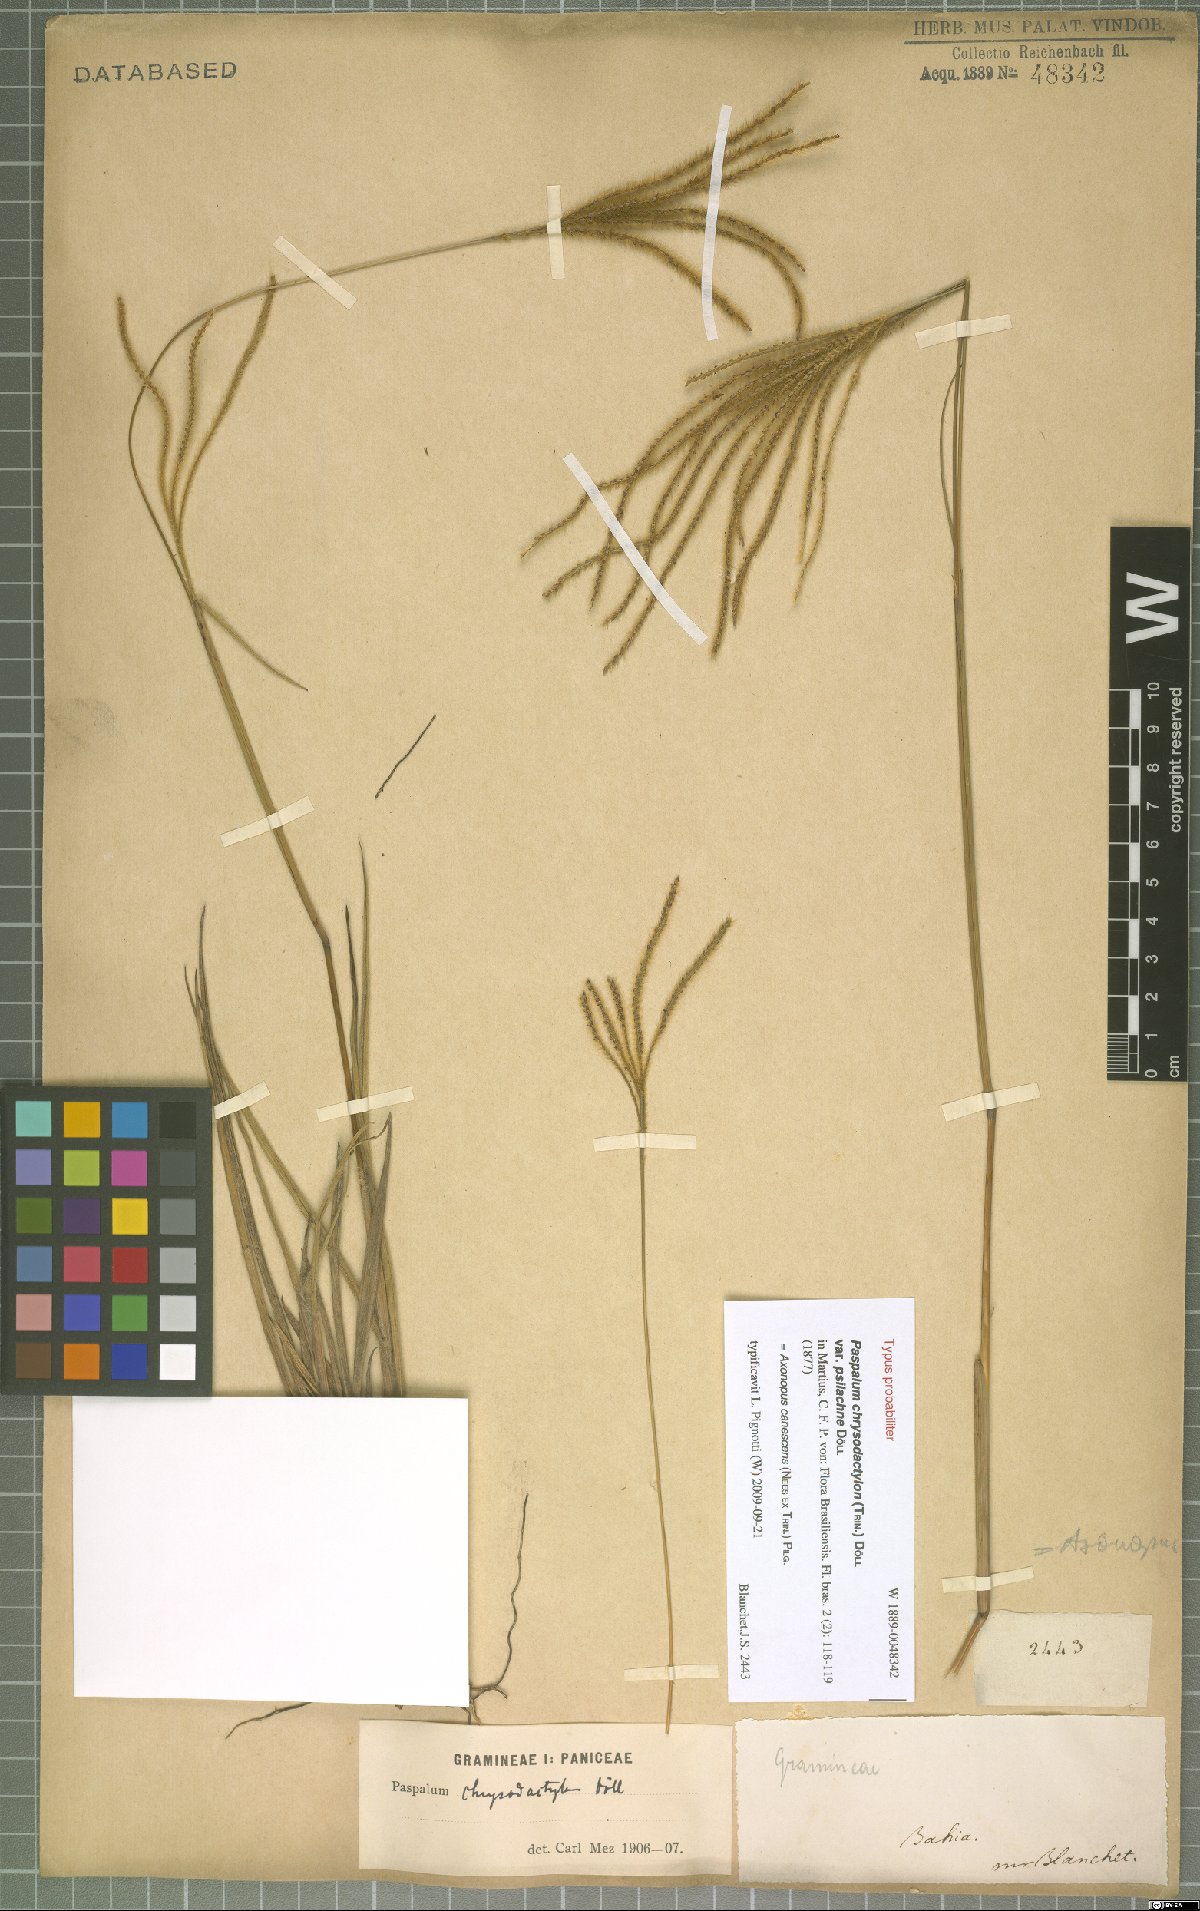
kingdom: Plantae
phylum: Tracheophyta
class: Liliopsida
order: Poales
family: Poaceae
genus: Axonopus
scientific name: Axonopus aureus
